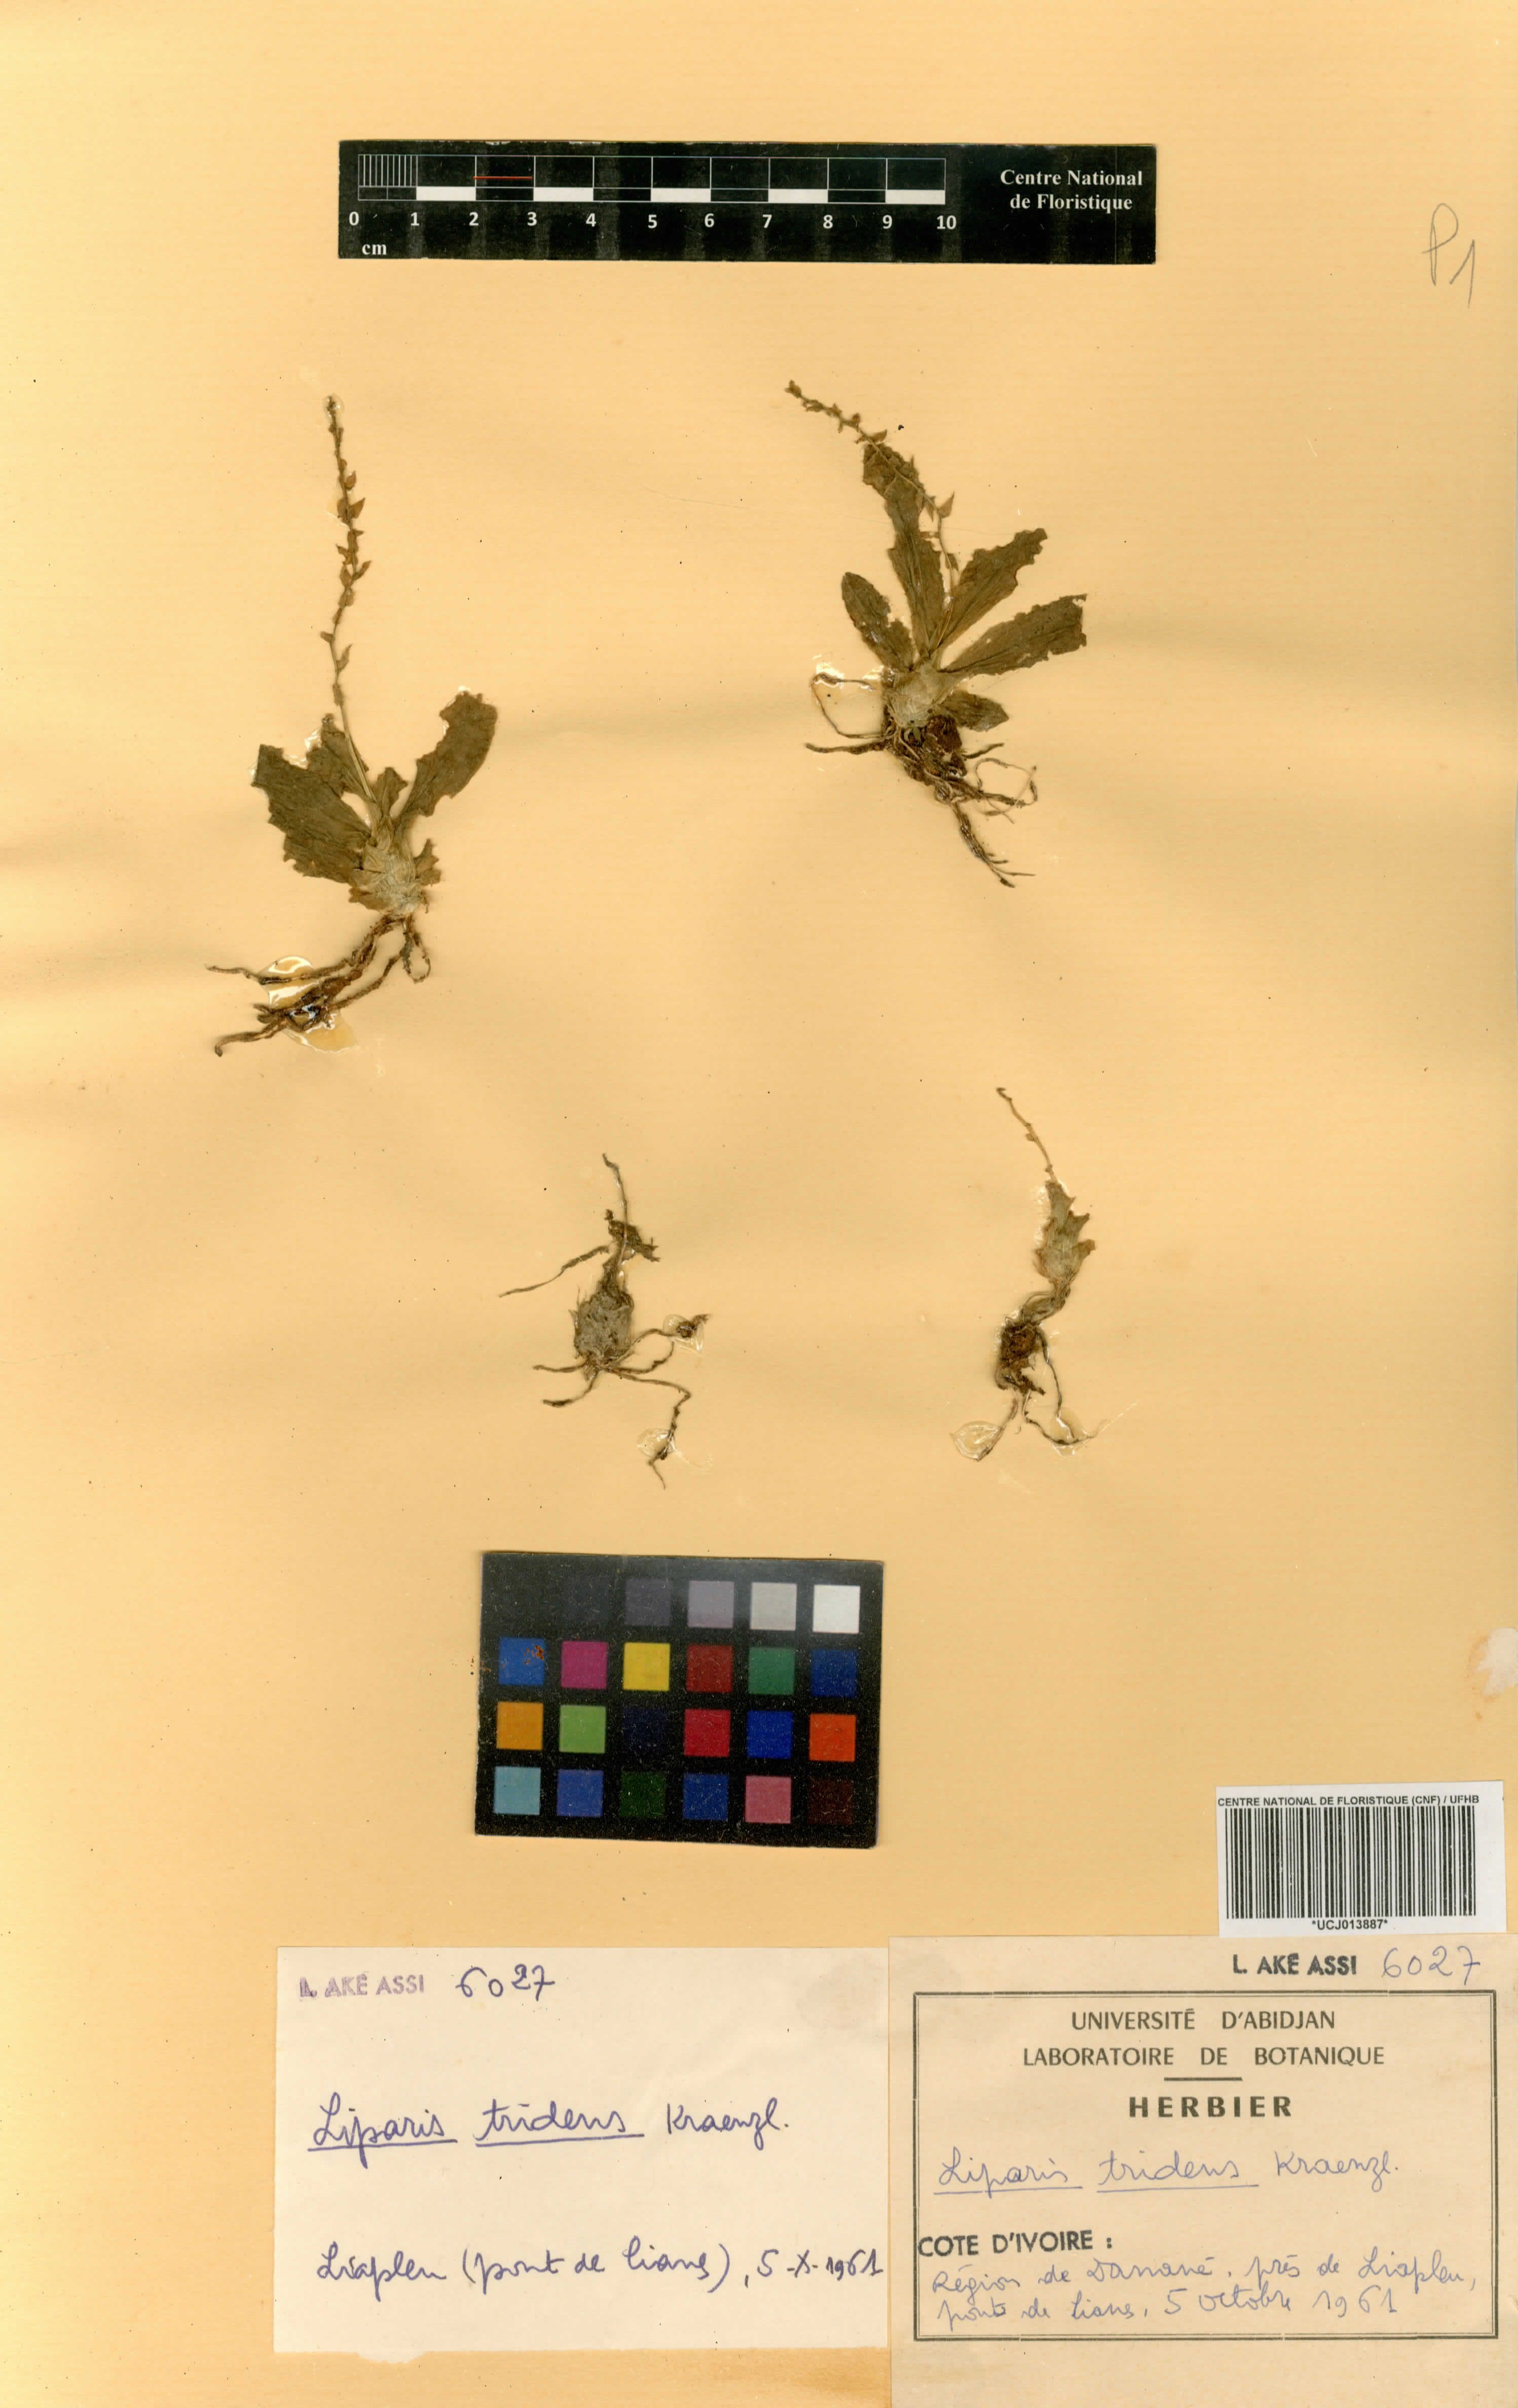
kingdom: Plantae
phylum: Tracheophyta
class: Liliopsida
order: Asparagales
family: Orchidaceae
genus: Liparis
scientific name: Liparis tridens
